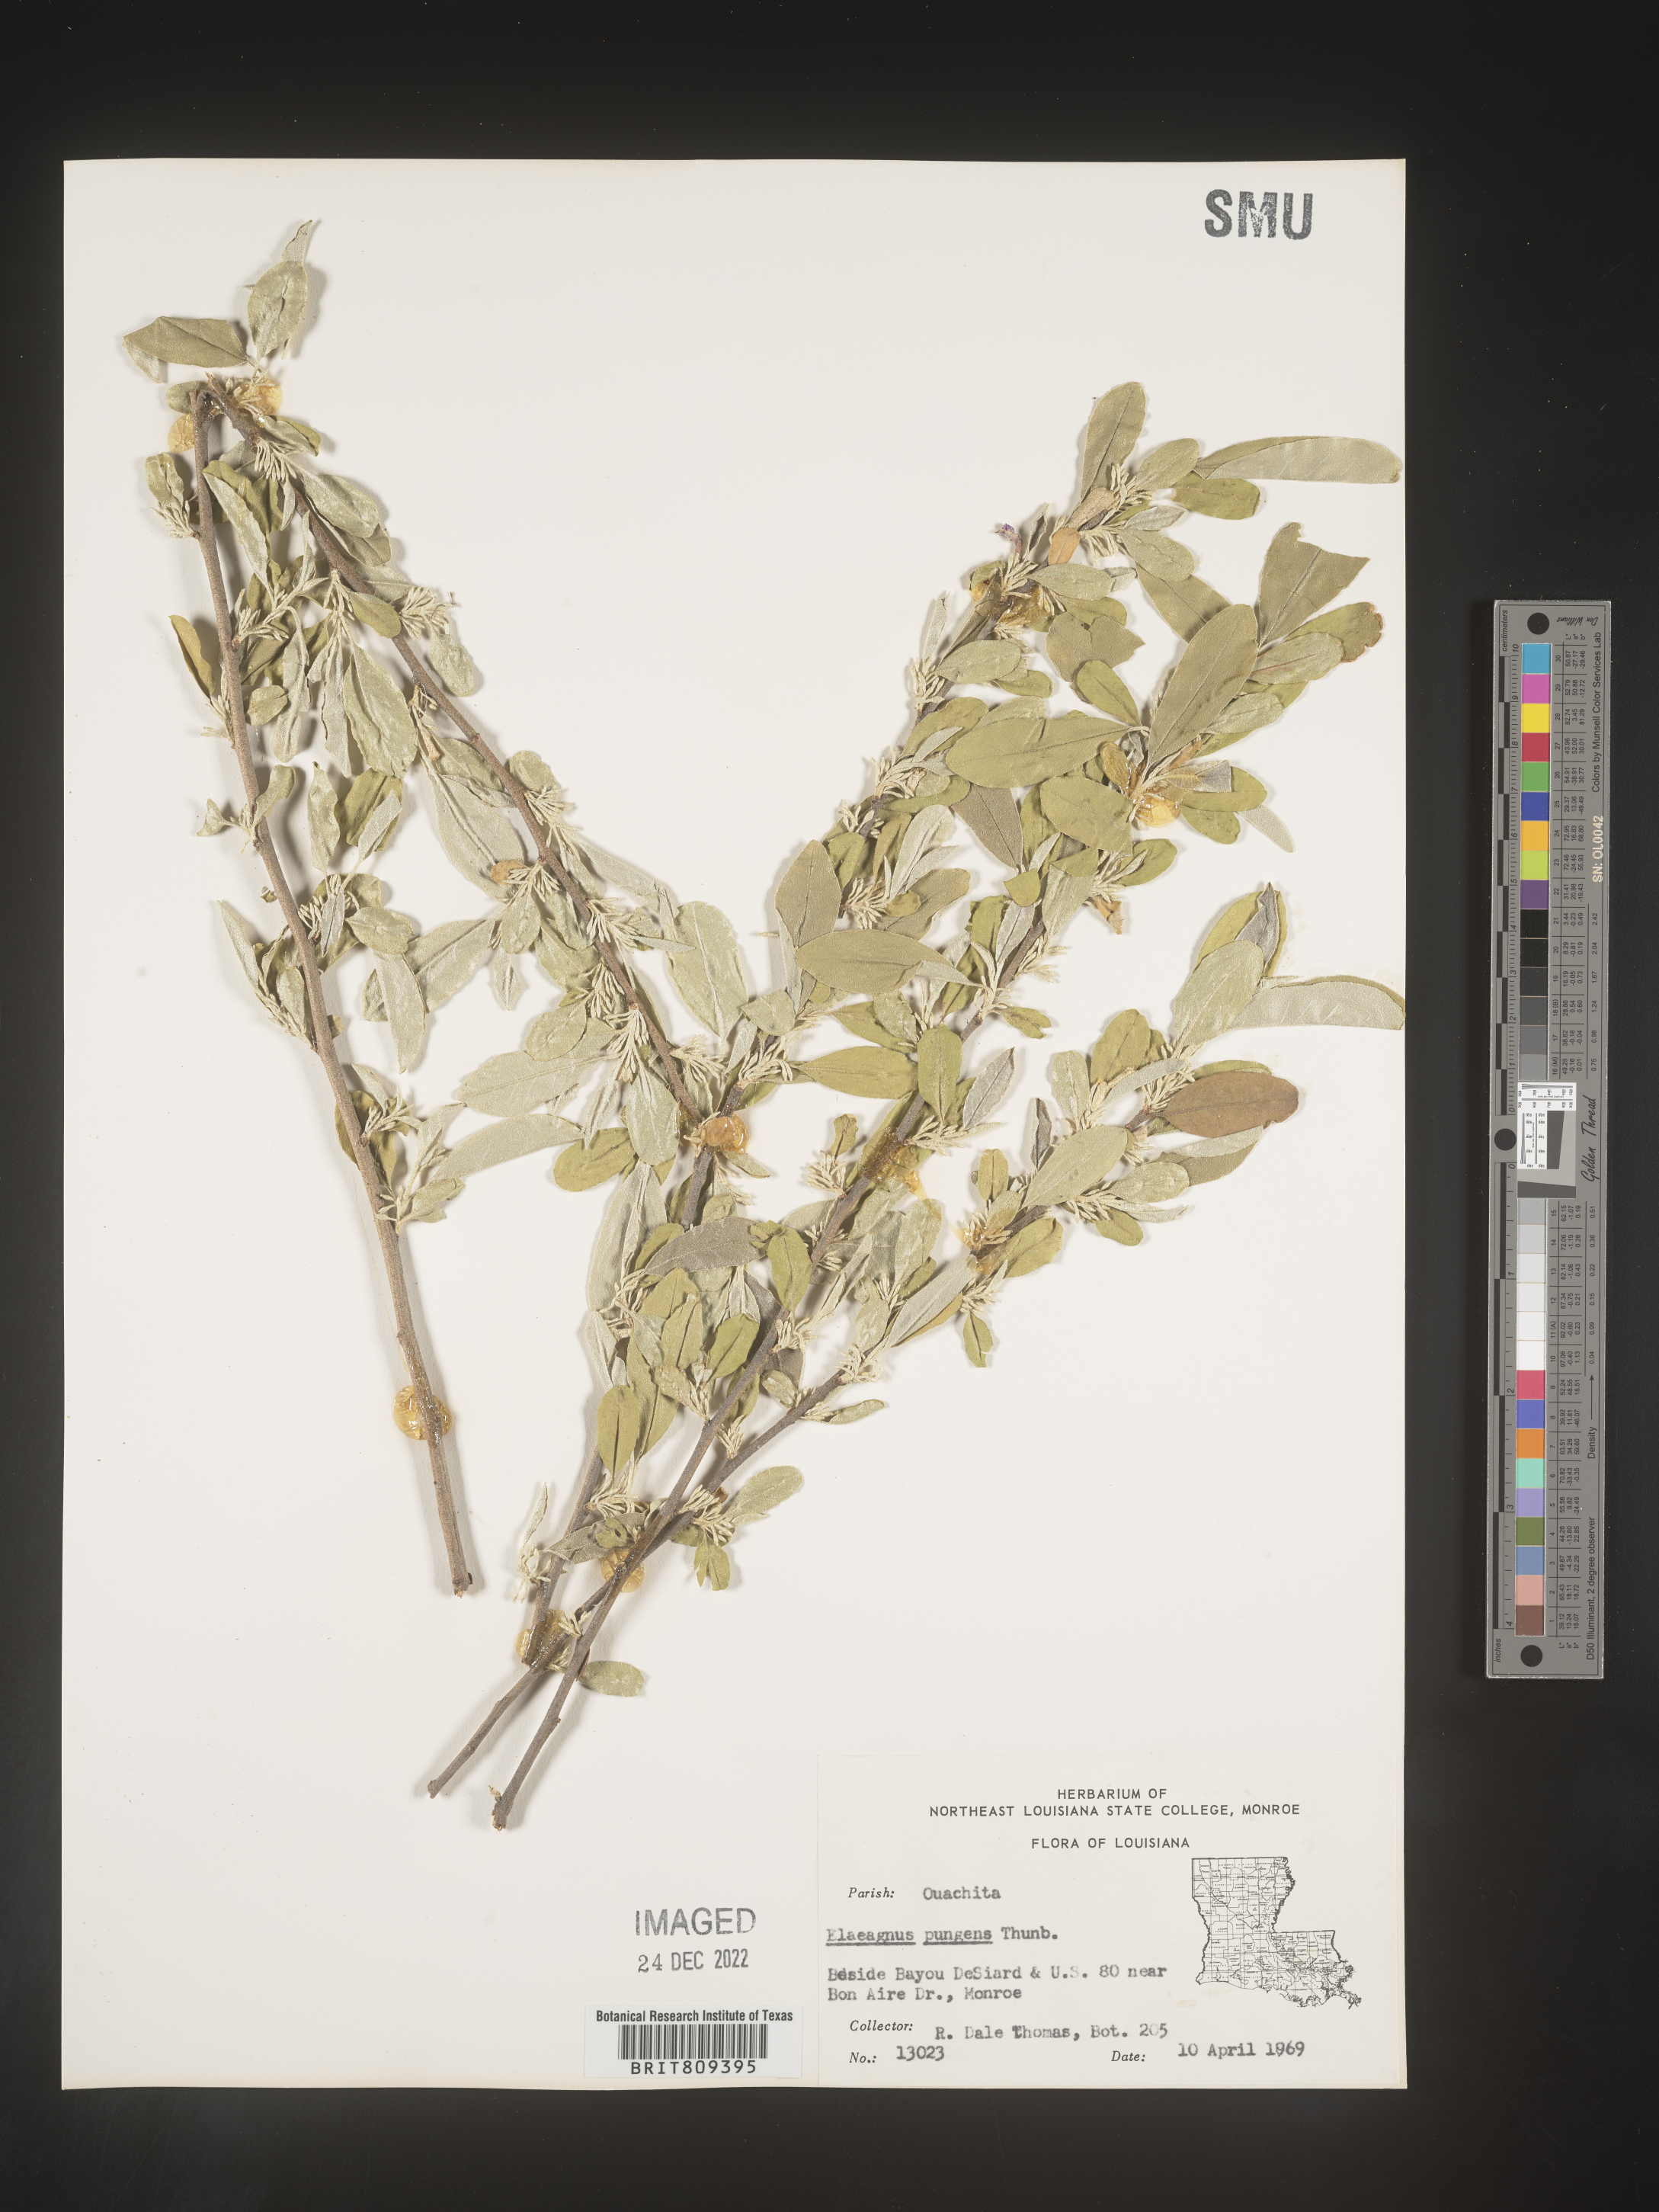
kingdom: Plantae
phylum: Tracheophyta
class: Magnoliopsida
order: Rosales
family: Elaeagnaceae
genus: Elaeagnus
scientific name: Elaeagnus
